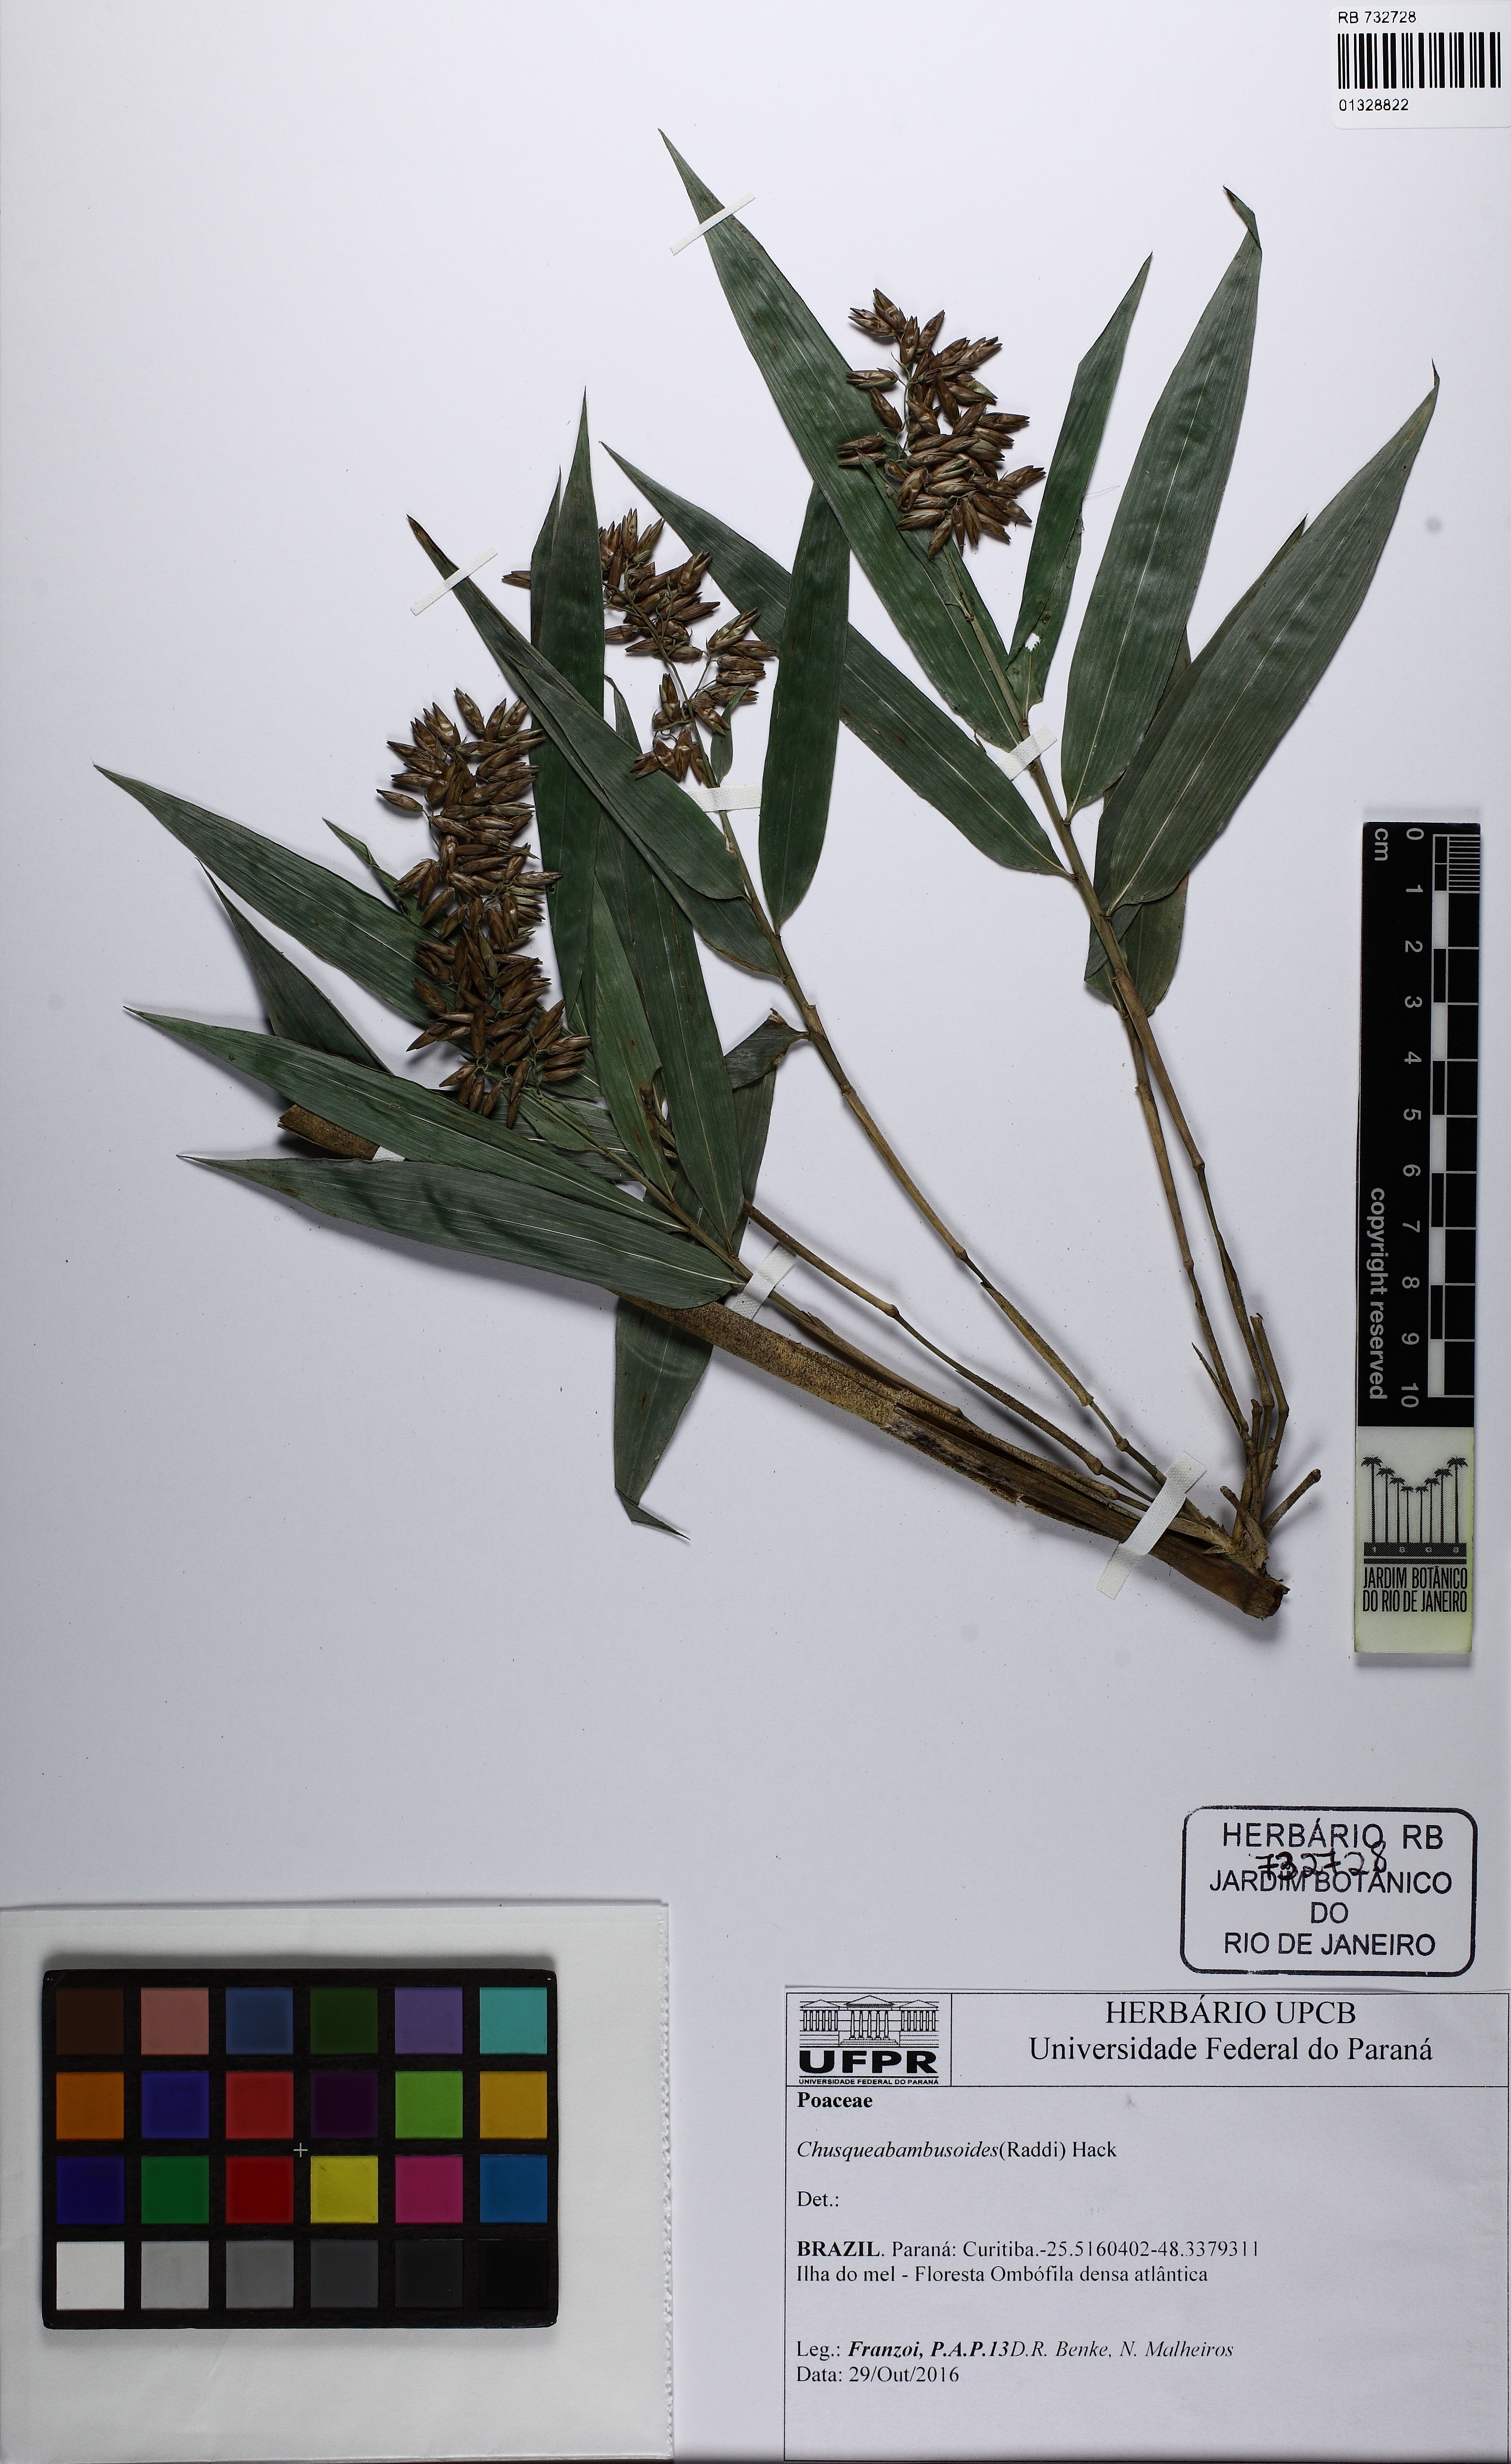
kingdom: Plantae
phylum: Tracheophyta
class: Liliopsida
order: Poales
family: Poaceae
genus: Chusquea
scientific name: Chusquea bambusoides
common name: Brazil scrambling bamboo
